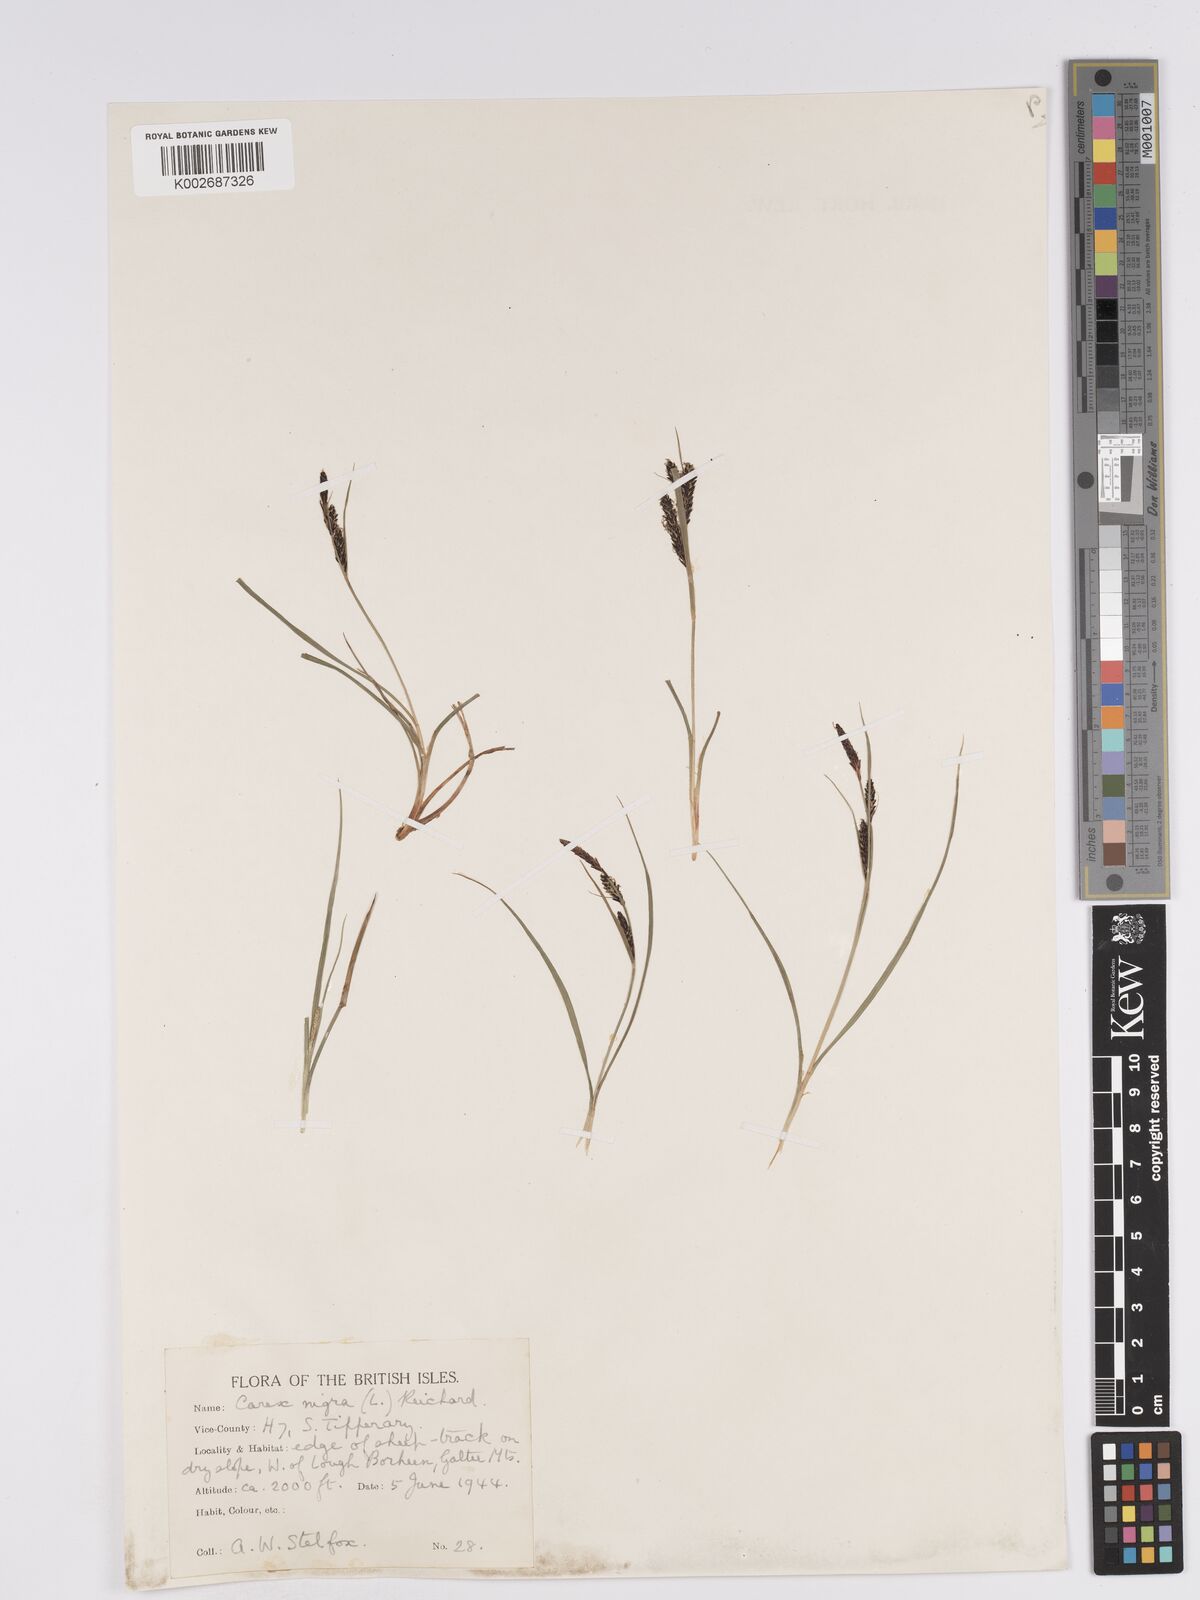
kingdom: Plantae
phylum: Tracheophyta
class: Liliopsida
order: Poales
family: Cyperaceae
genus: Carex
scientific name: Carex nigra
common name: Common sedge
